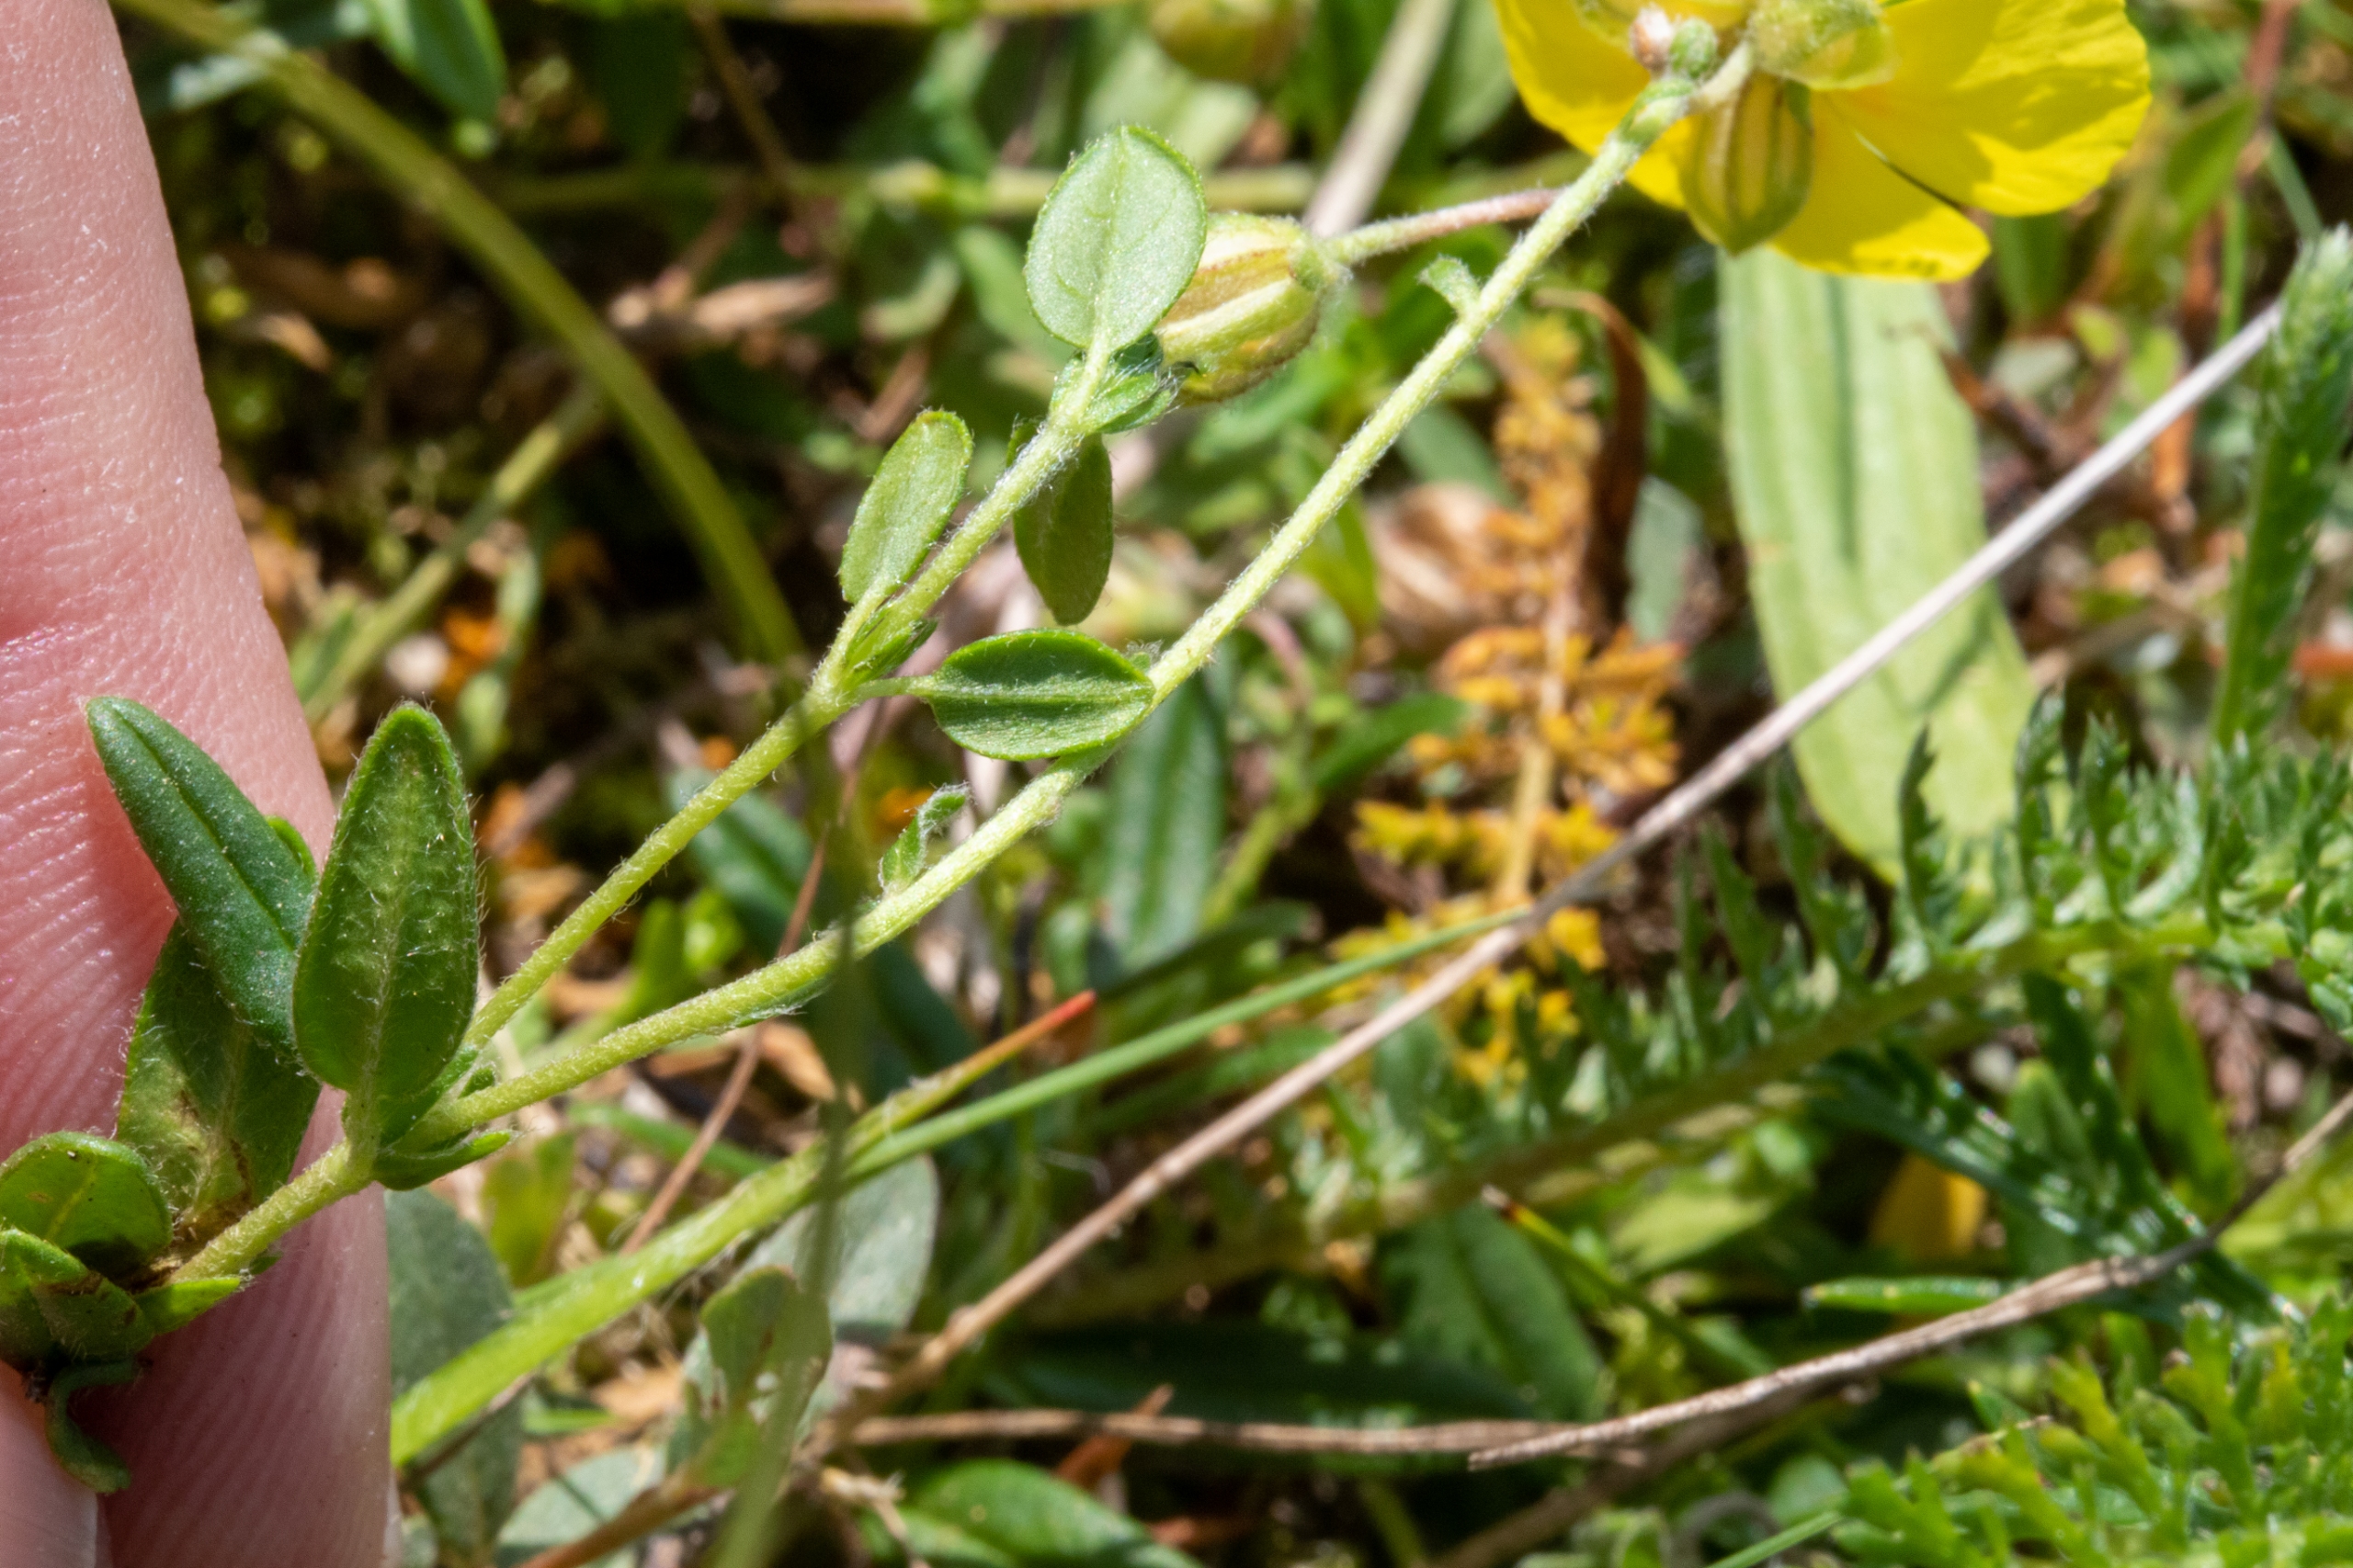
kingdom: Plantae
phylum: Tracheophyta
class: Magnoliopsida
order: Malvales
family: Cistaceae
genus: Helianthemum
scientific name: Helianthemum nummularium
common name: Bakke-soløje
